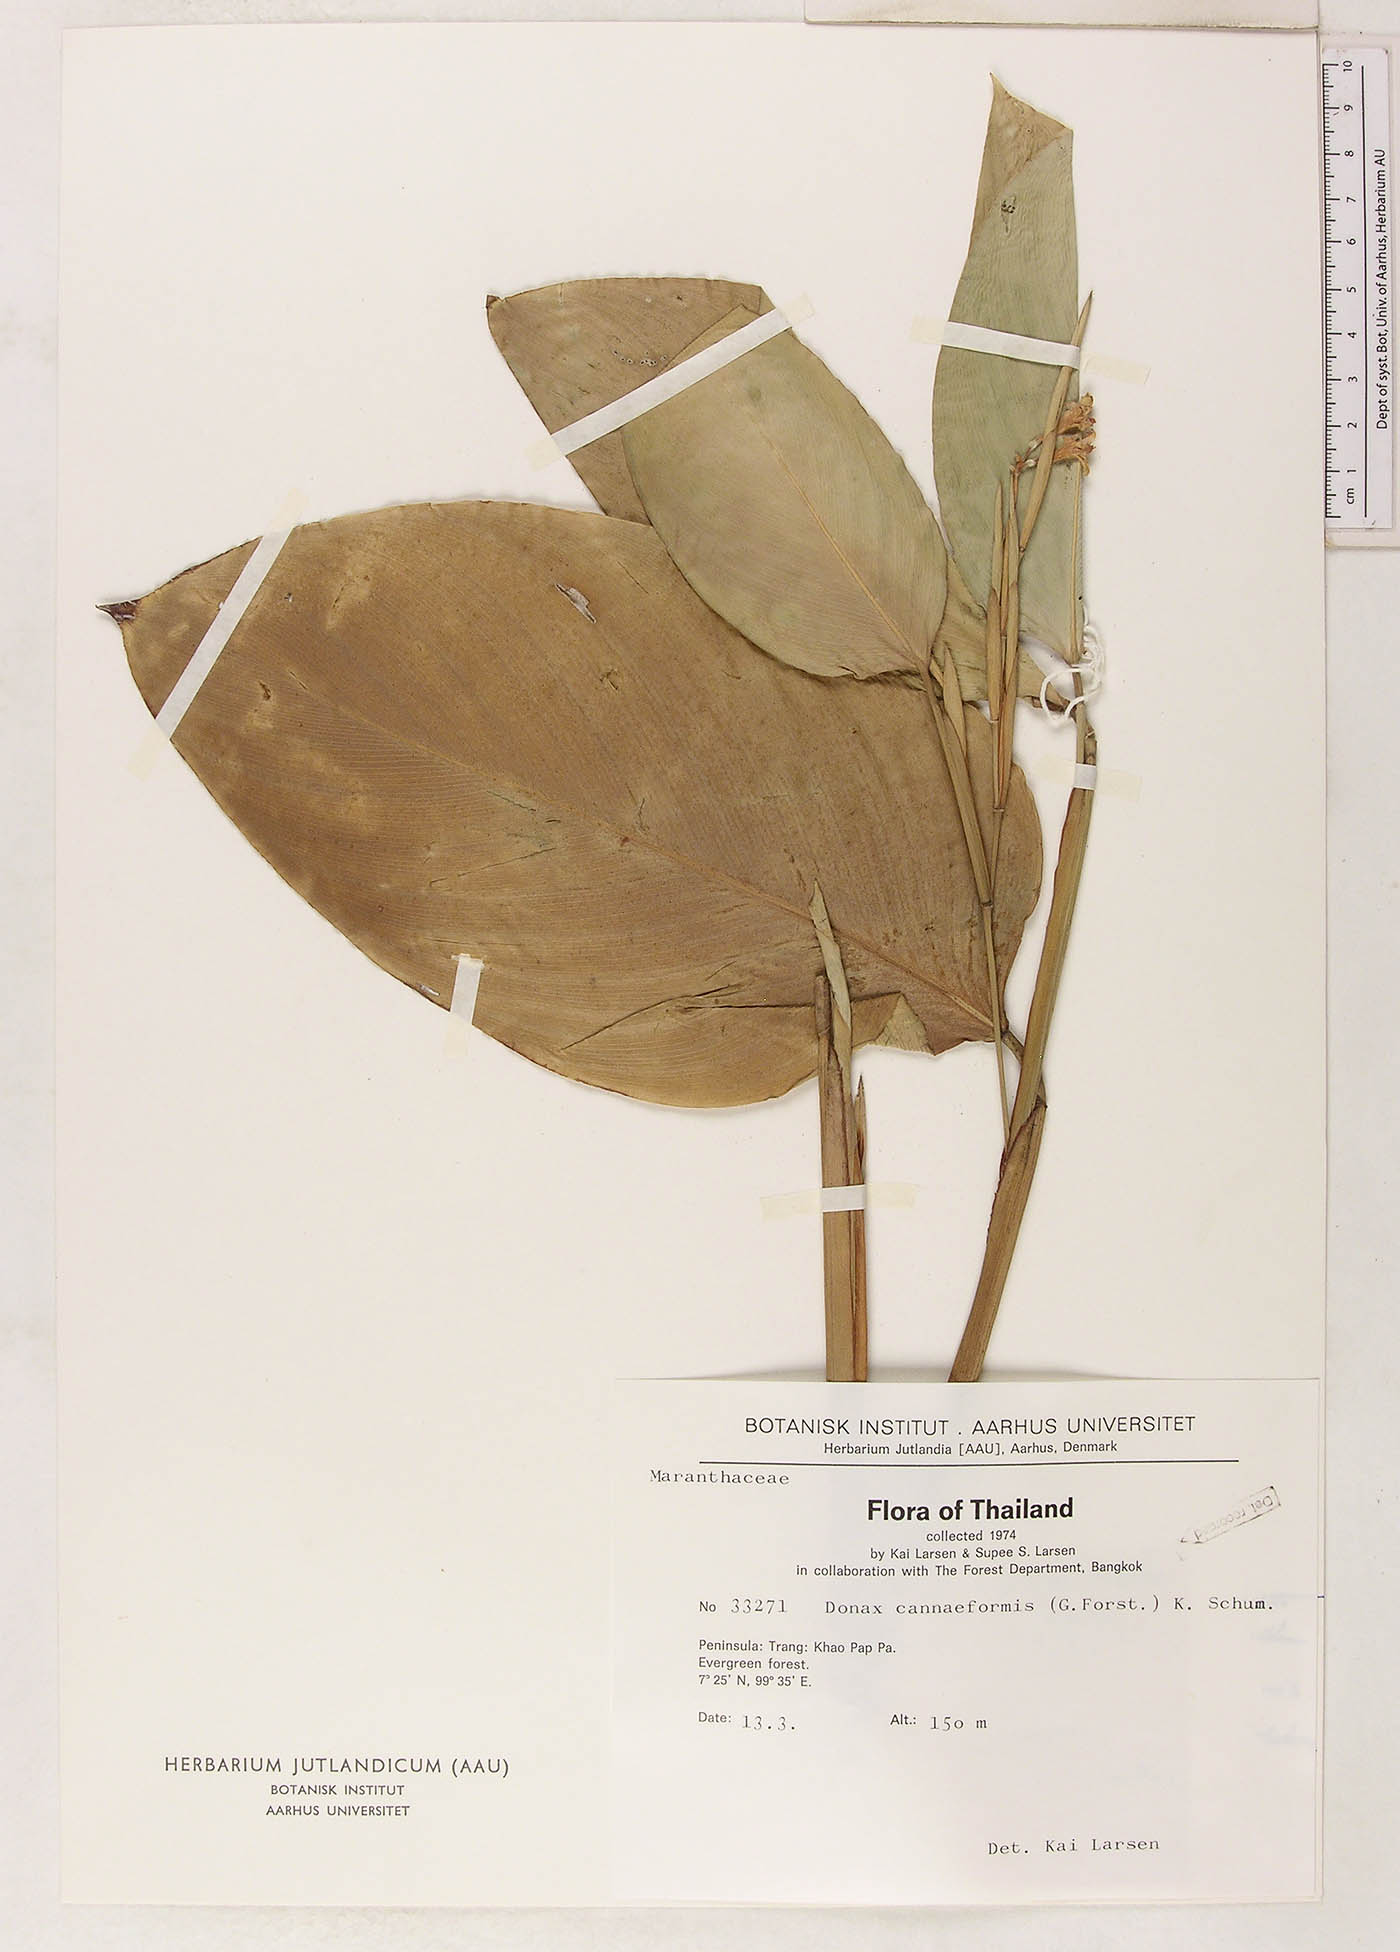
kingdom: Plantae
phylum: Tracheophyta
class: Liliopsida
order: Zingiberales
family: Marantaceae
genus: Donax
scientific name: Donax canniformis
